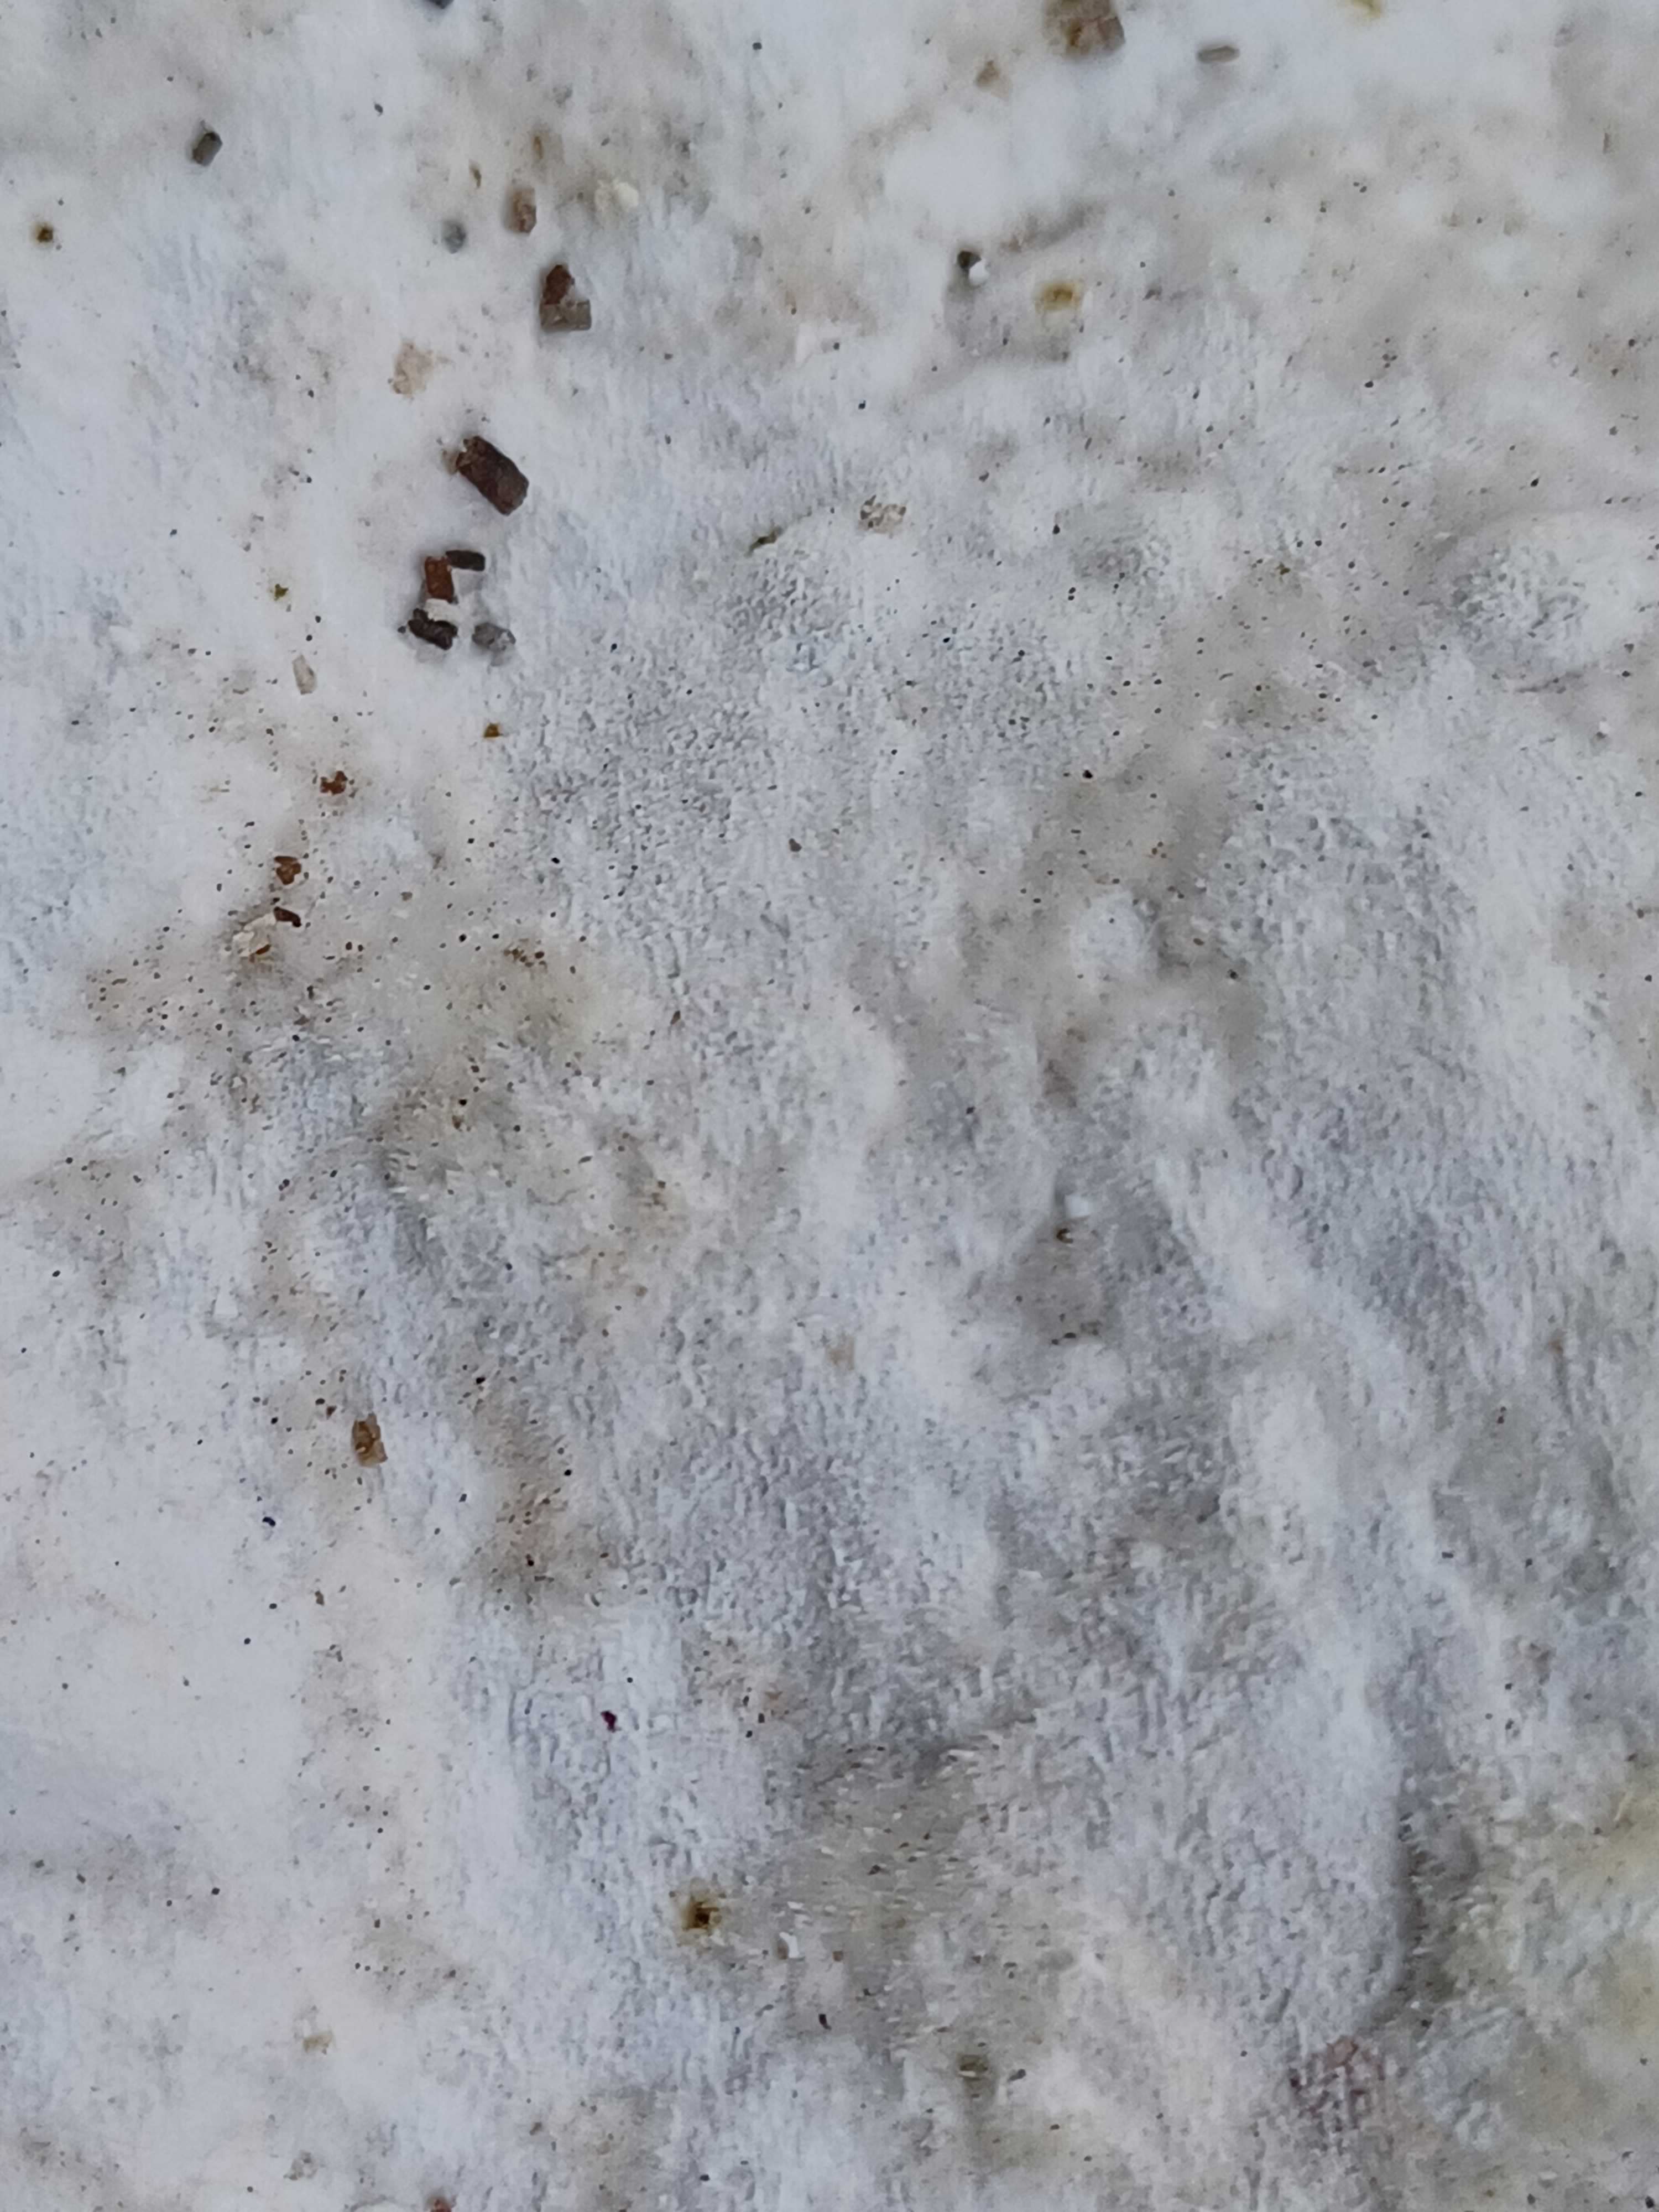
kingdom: Fungi
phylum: Basidiomycota
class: Agaricomycetes
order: Polyporales
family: Polyporaceae
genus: Trametes
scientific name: Trametes gibbosa
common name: puklet læderporesvamp
